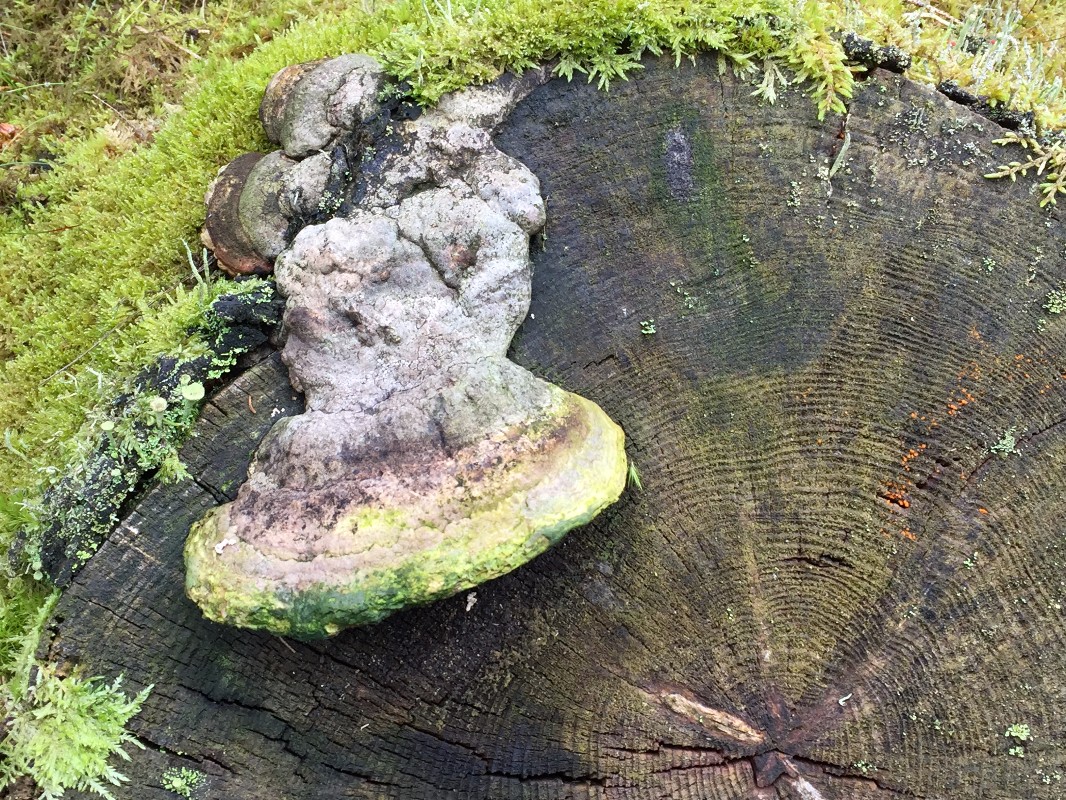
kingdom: Fungi
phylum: Basidiomycota
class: Agaricomycetes
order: Polyporales
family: Fomitopsidaceae
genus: Fomitopsis
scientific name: Fomitopsis pinicola
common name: randbæltet hovporesvamp
